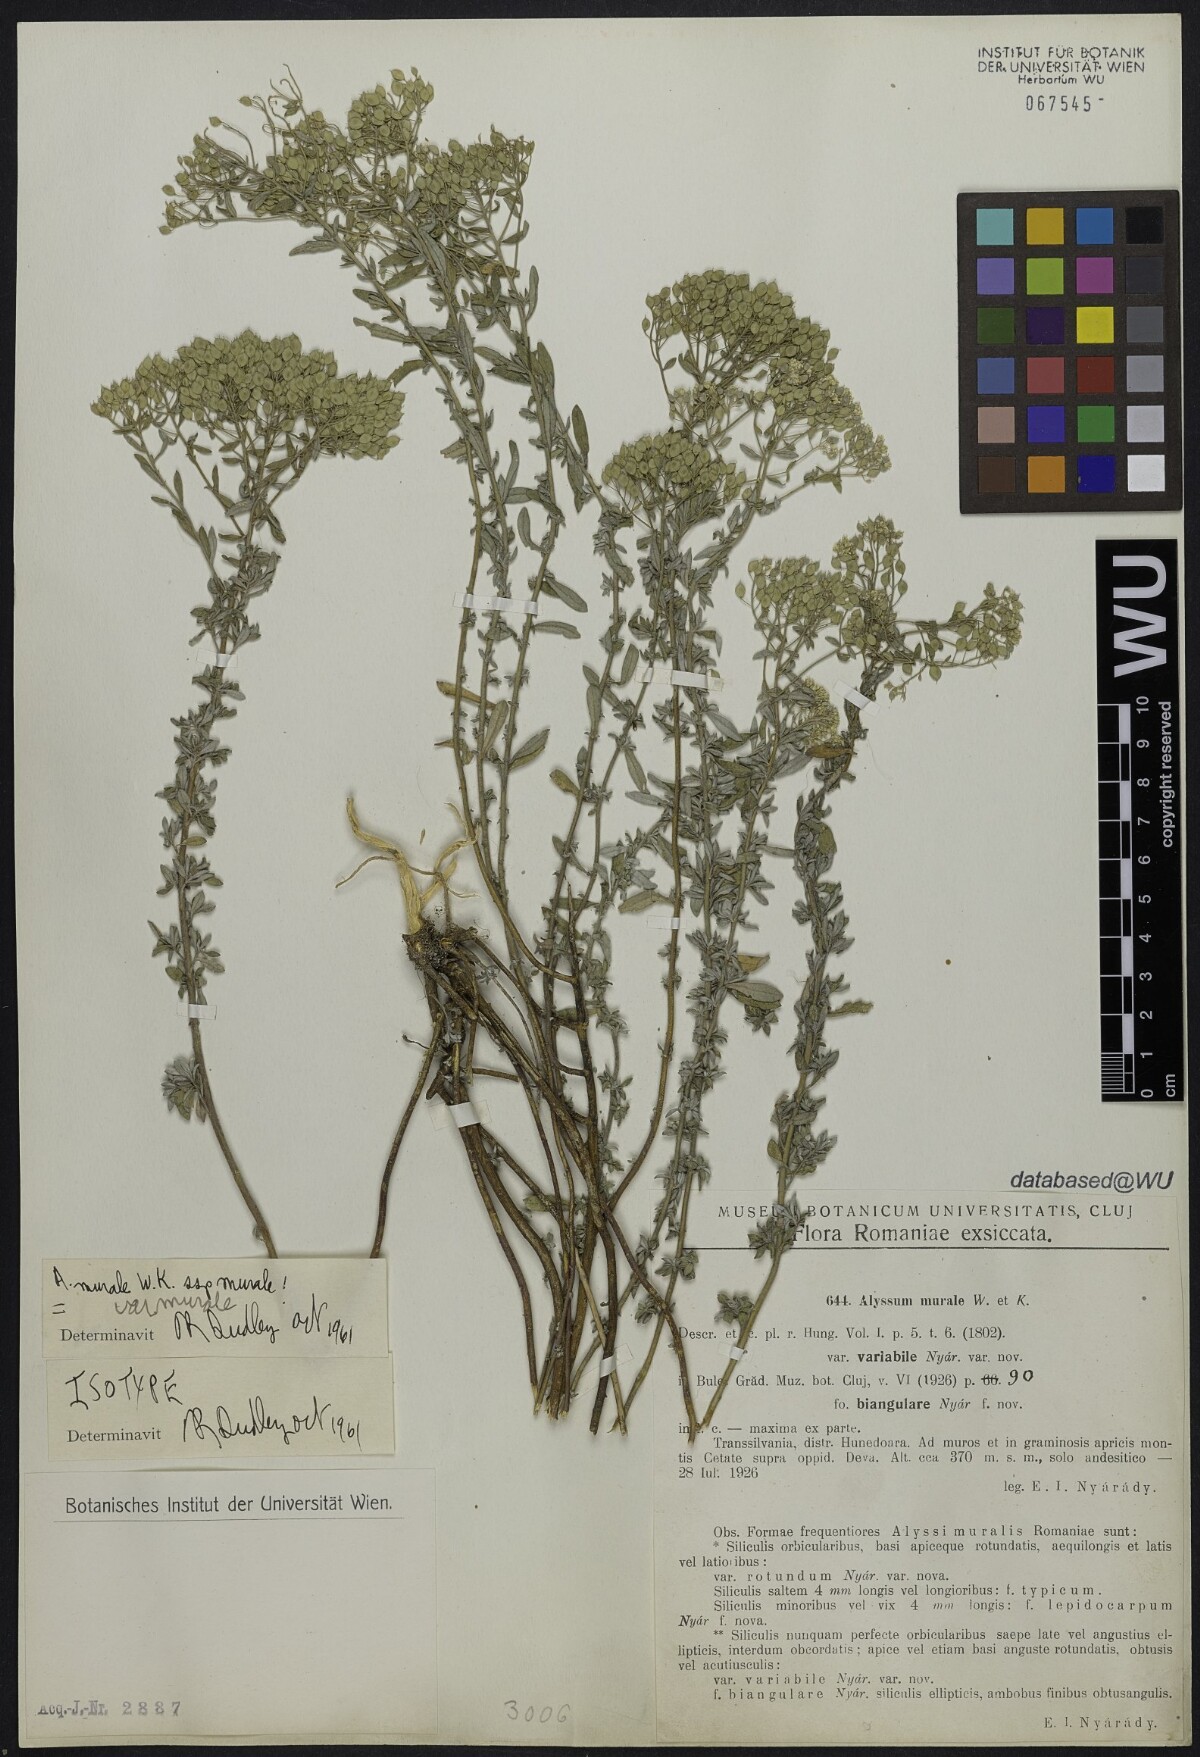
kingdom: Plantae
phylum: Tracheophyta
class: Magnoliopsida
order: Brassicales
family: Brassicaceae
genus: Odontarrhena
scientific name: Odontarrhena muralis
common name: Rock alyssum
